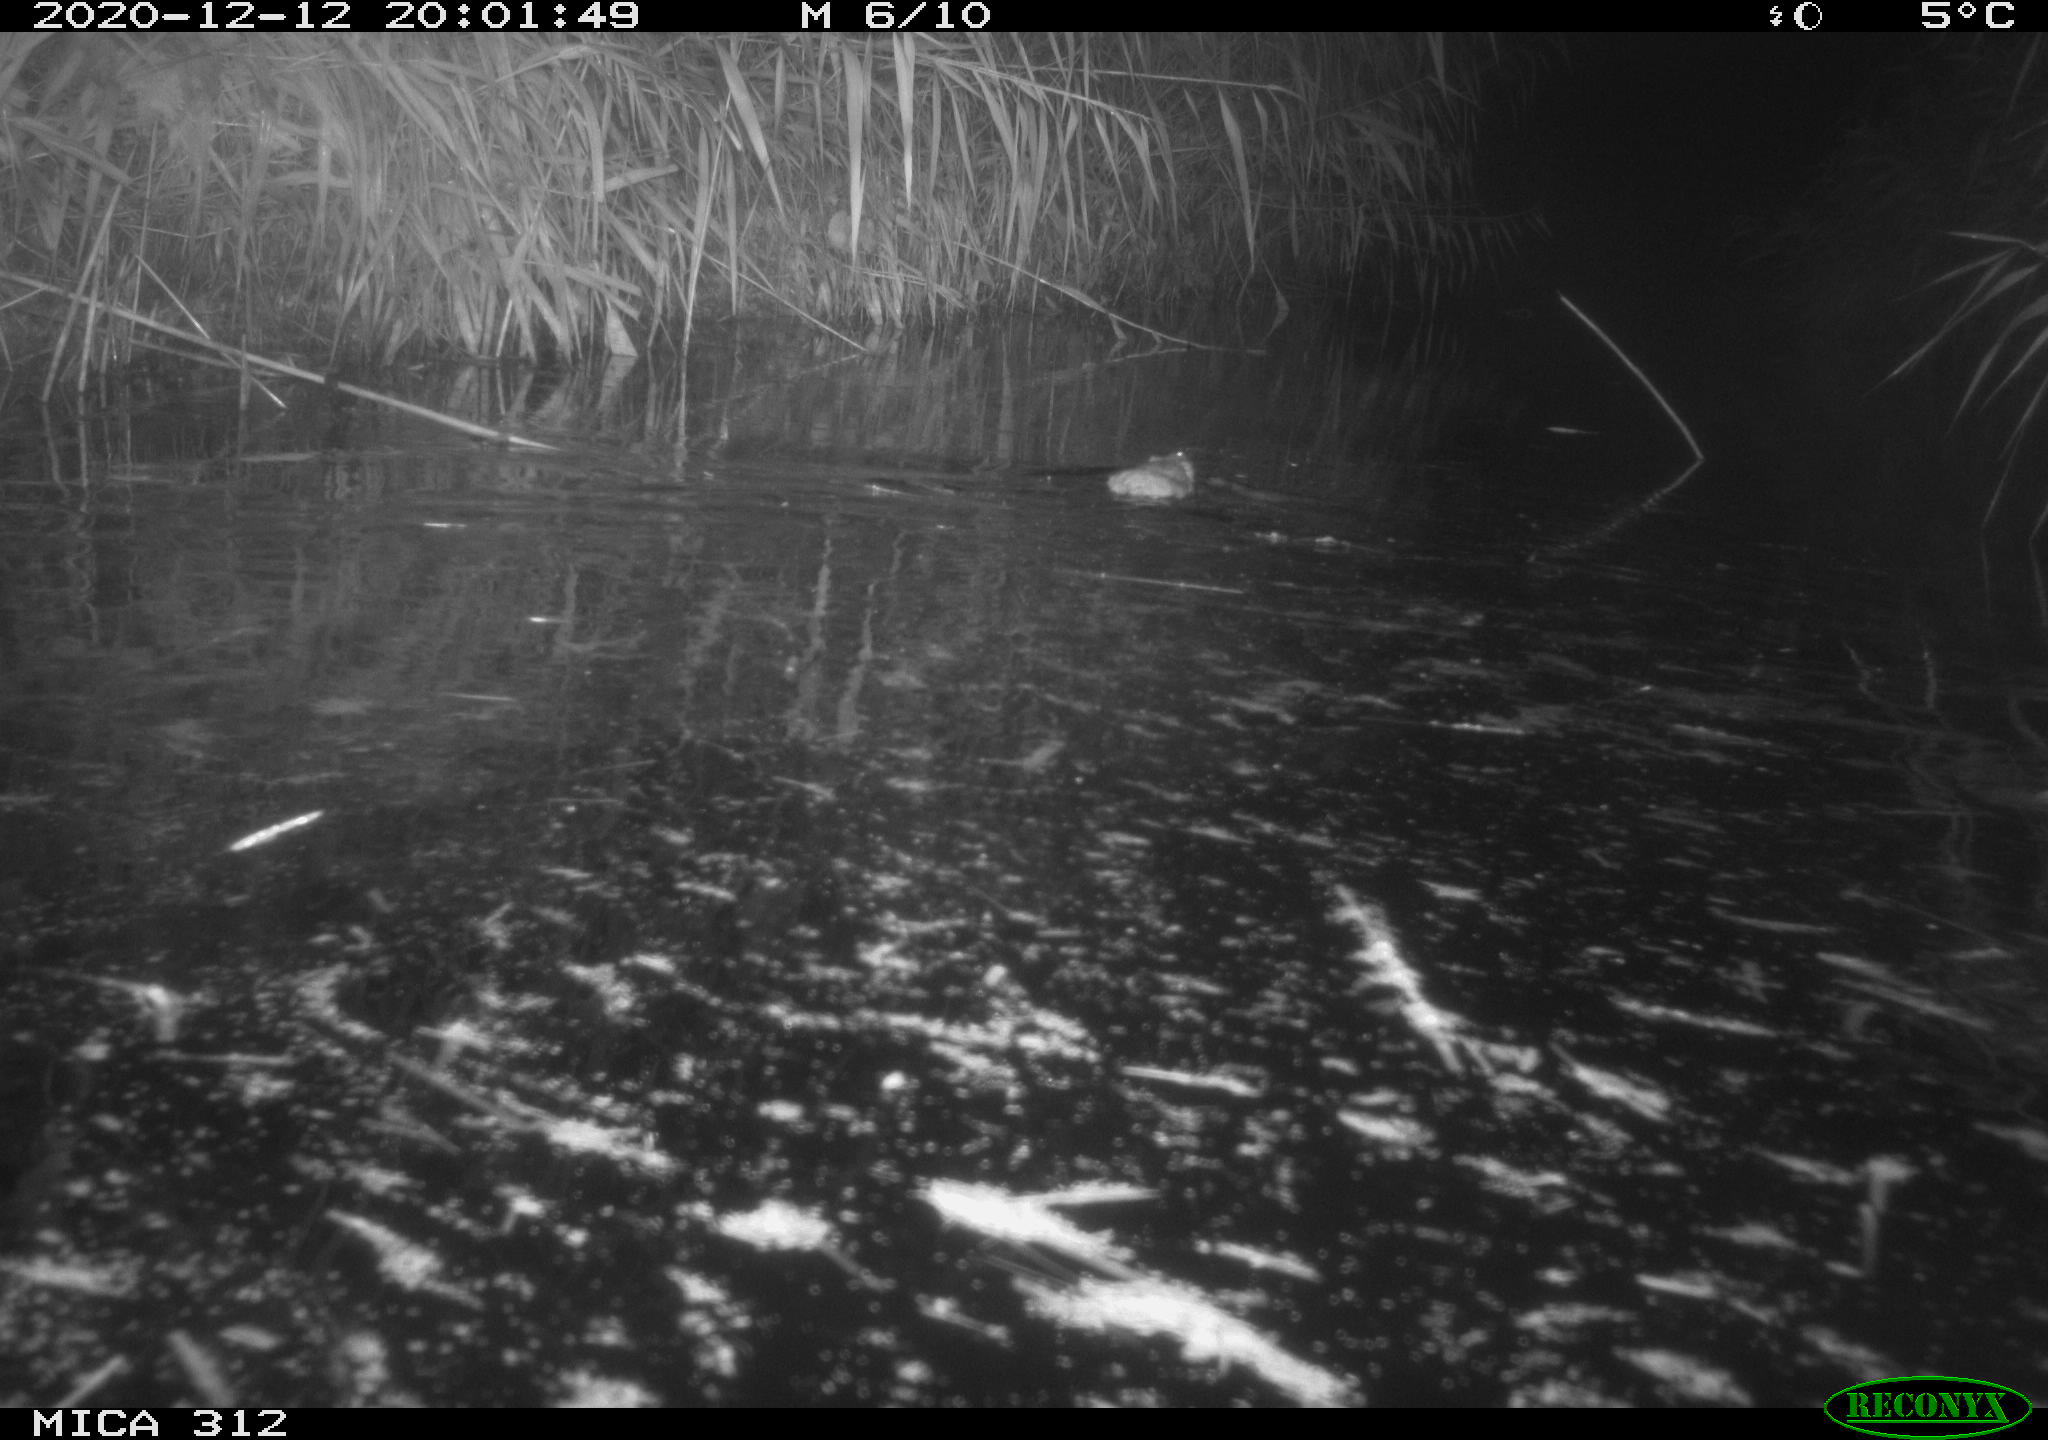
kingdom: Animalia
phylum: Chordata
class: Mammalia
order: Rodentia
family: Muridae
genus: Rattus
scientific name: Rattus norvegicus
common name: Brown rat
